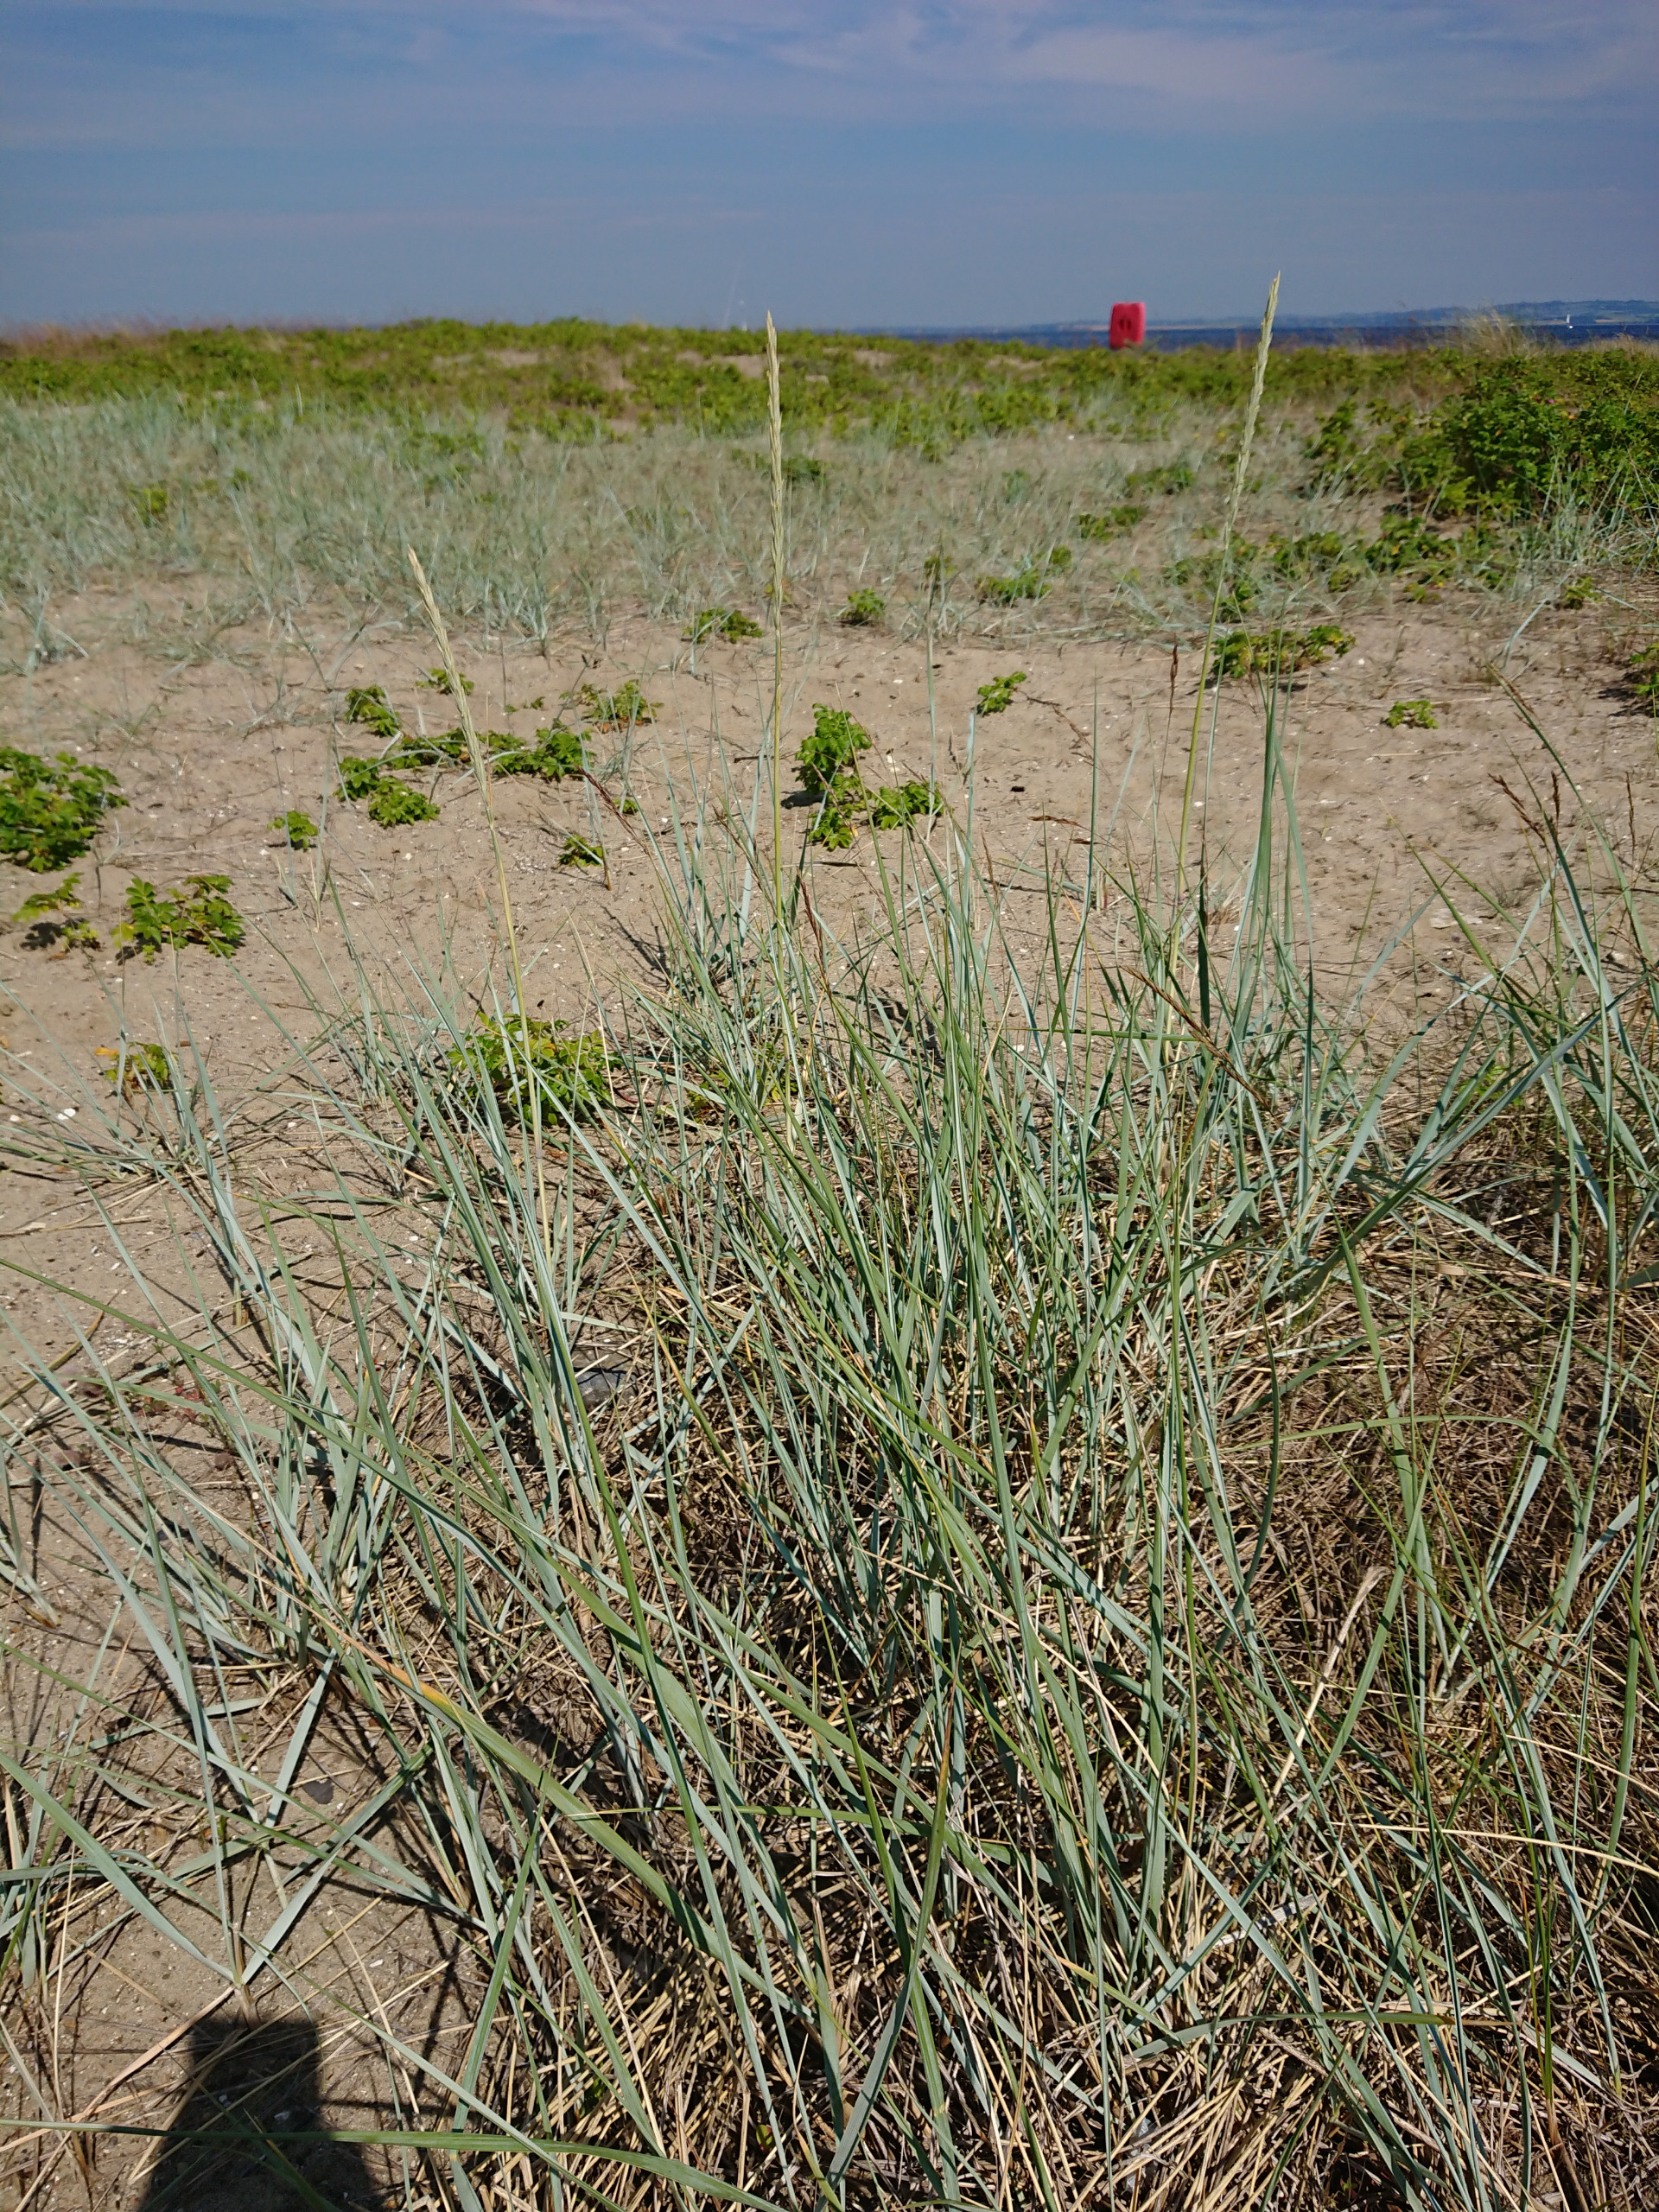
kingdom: Plantae
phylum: Tracheophyta
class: Liliopsida
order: Poales
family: Poaceae
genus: Leymus
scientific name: Leymus arenarius
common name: Marehalm
